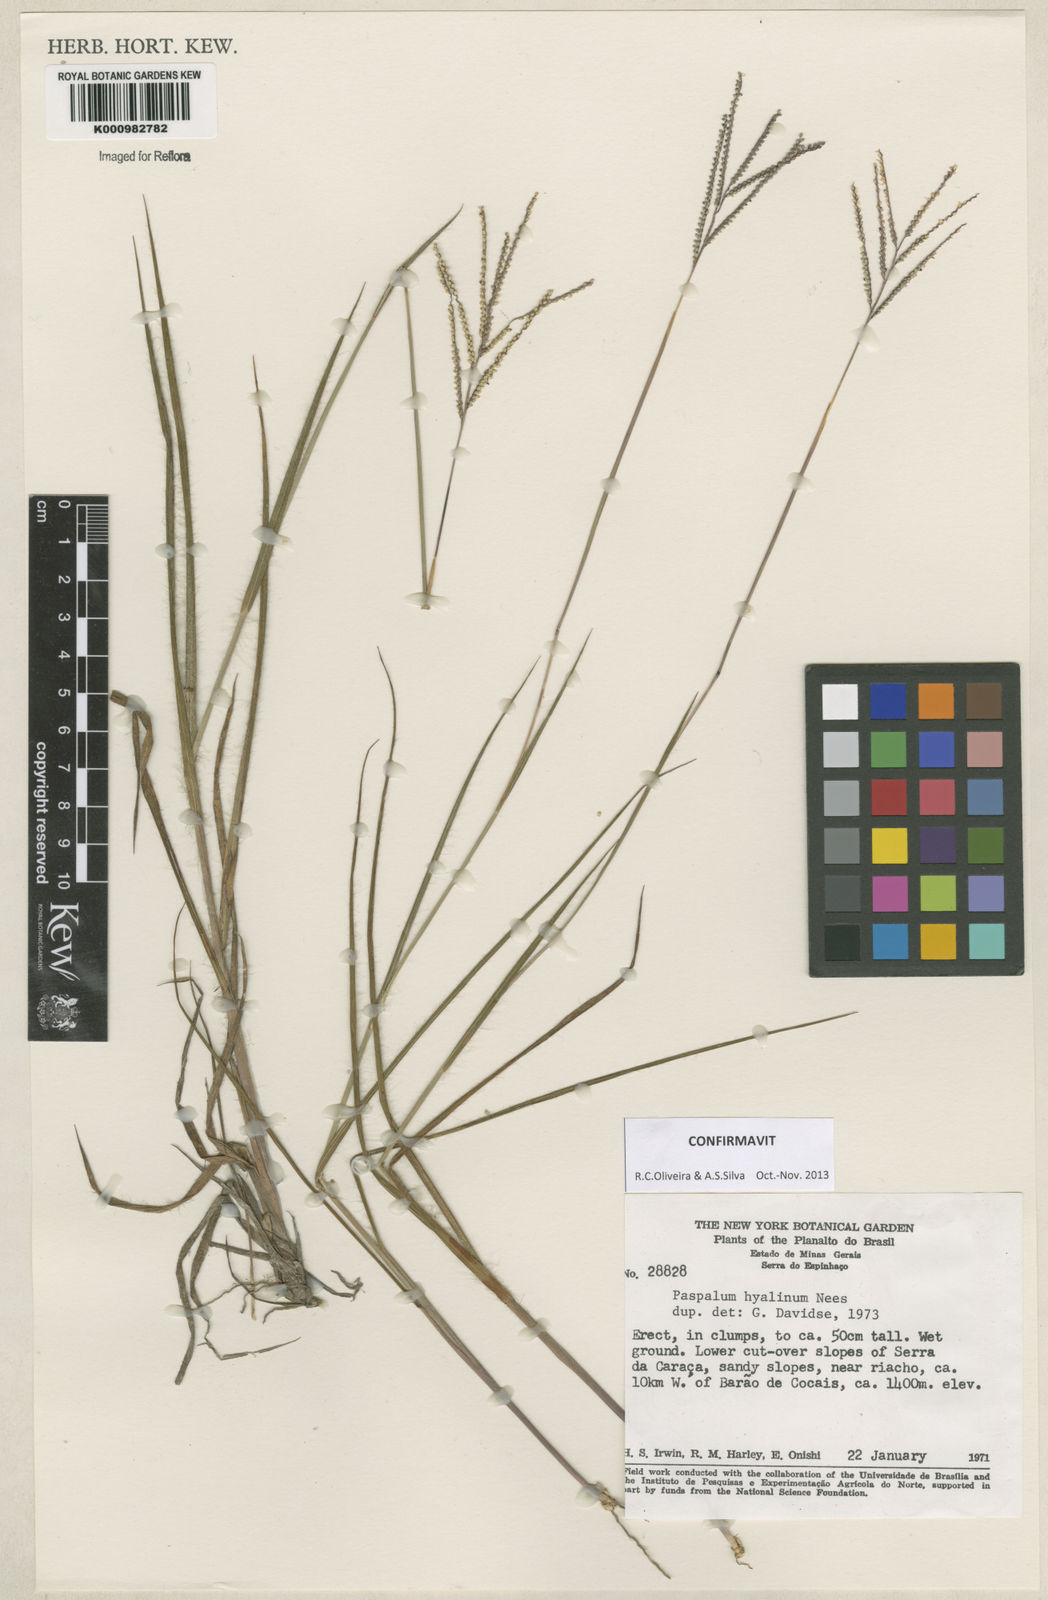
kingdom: Plantae
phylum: Tracheophyta
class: Liliopsida
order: Poales
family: Poaceae
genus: Paspalum
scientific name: Paspalum hyalinum
